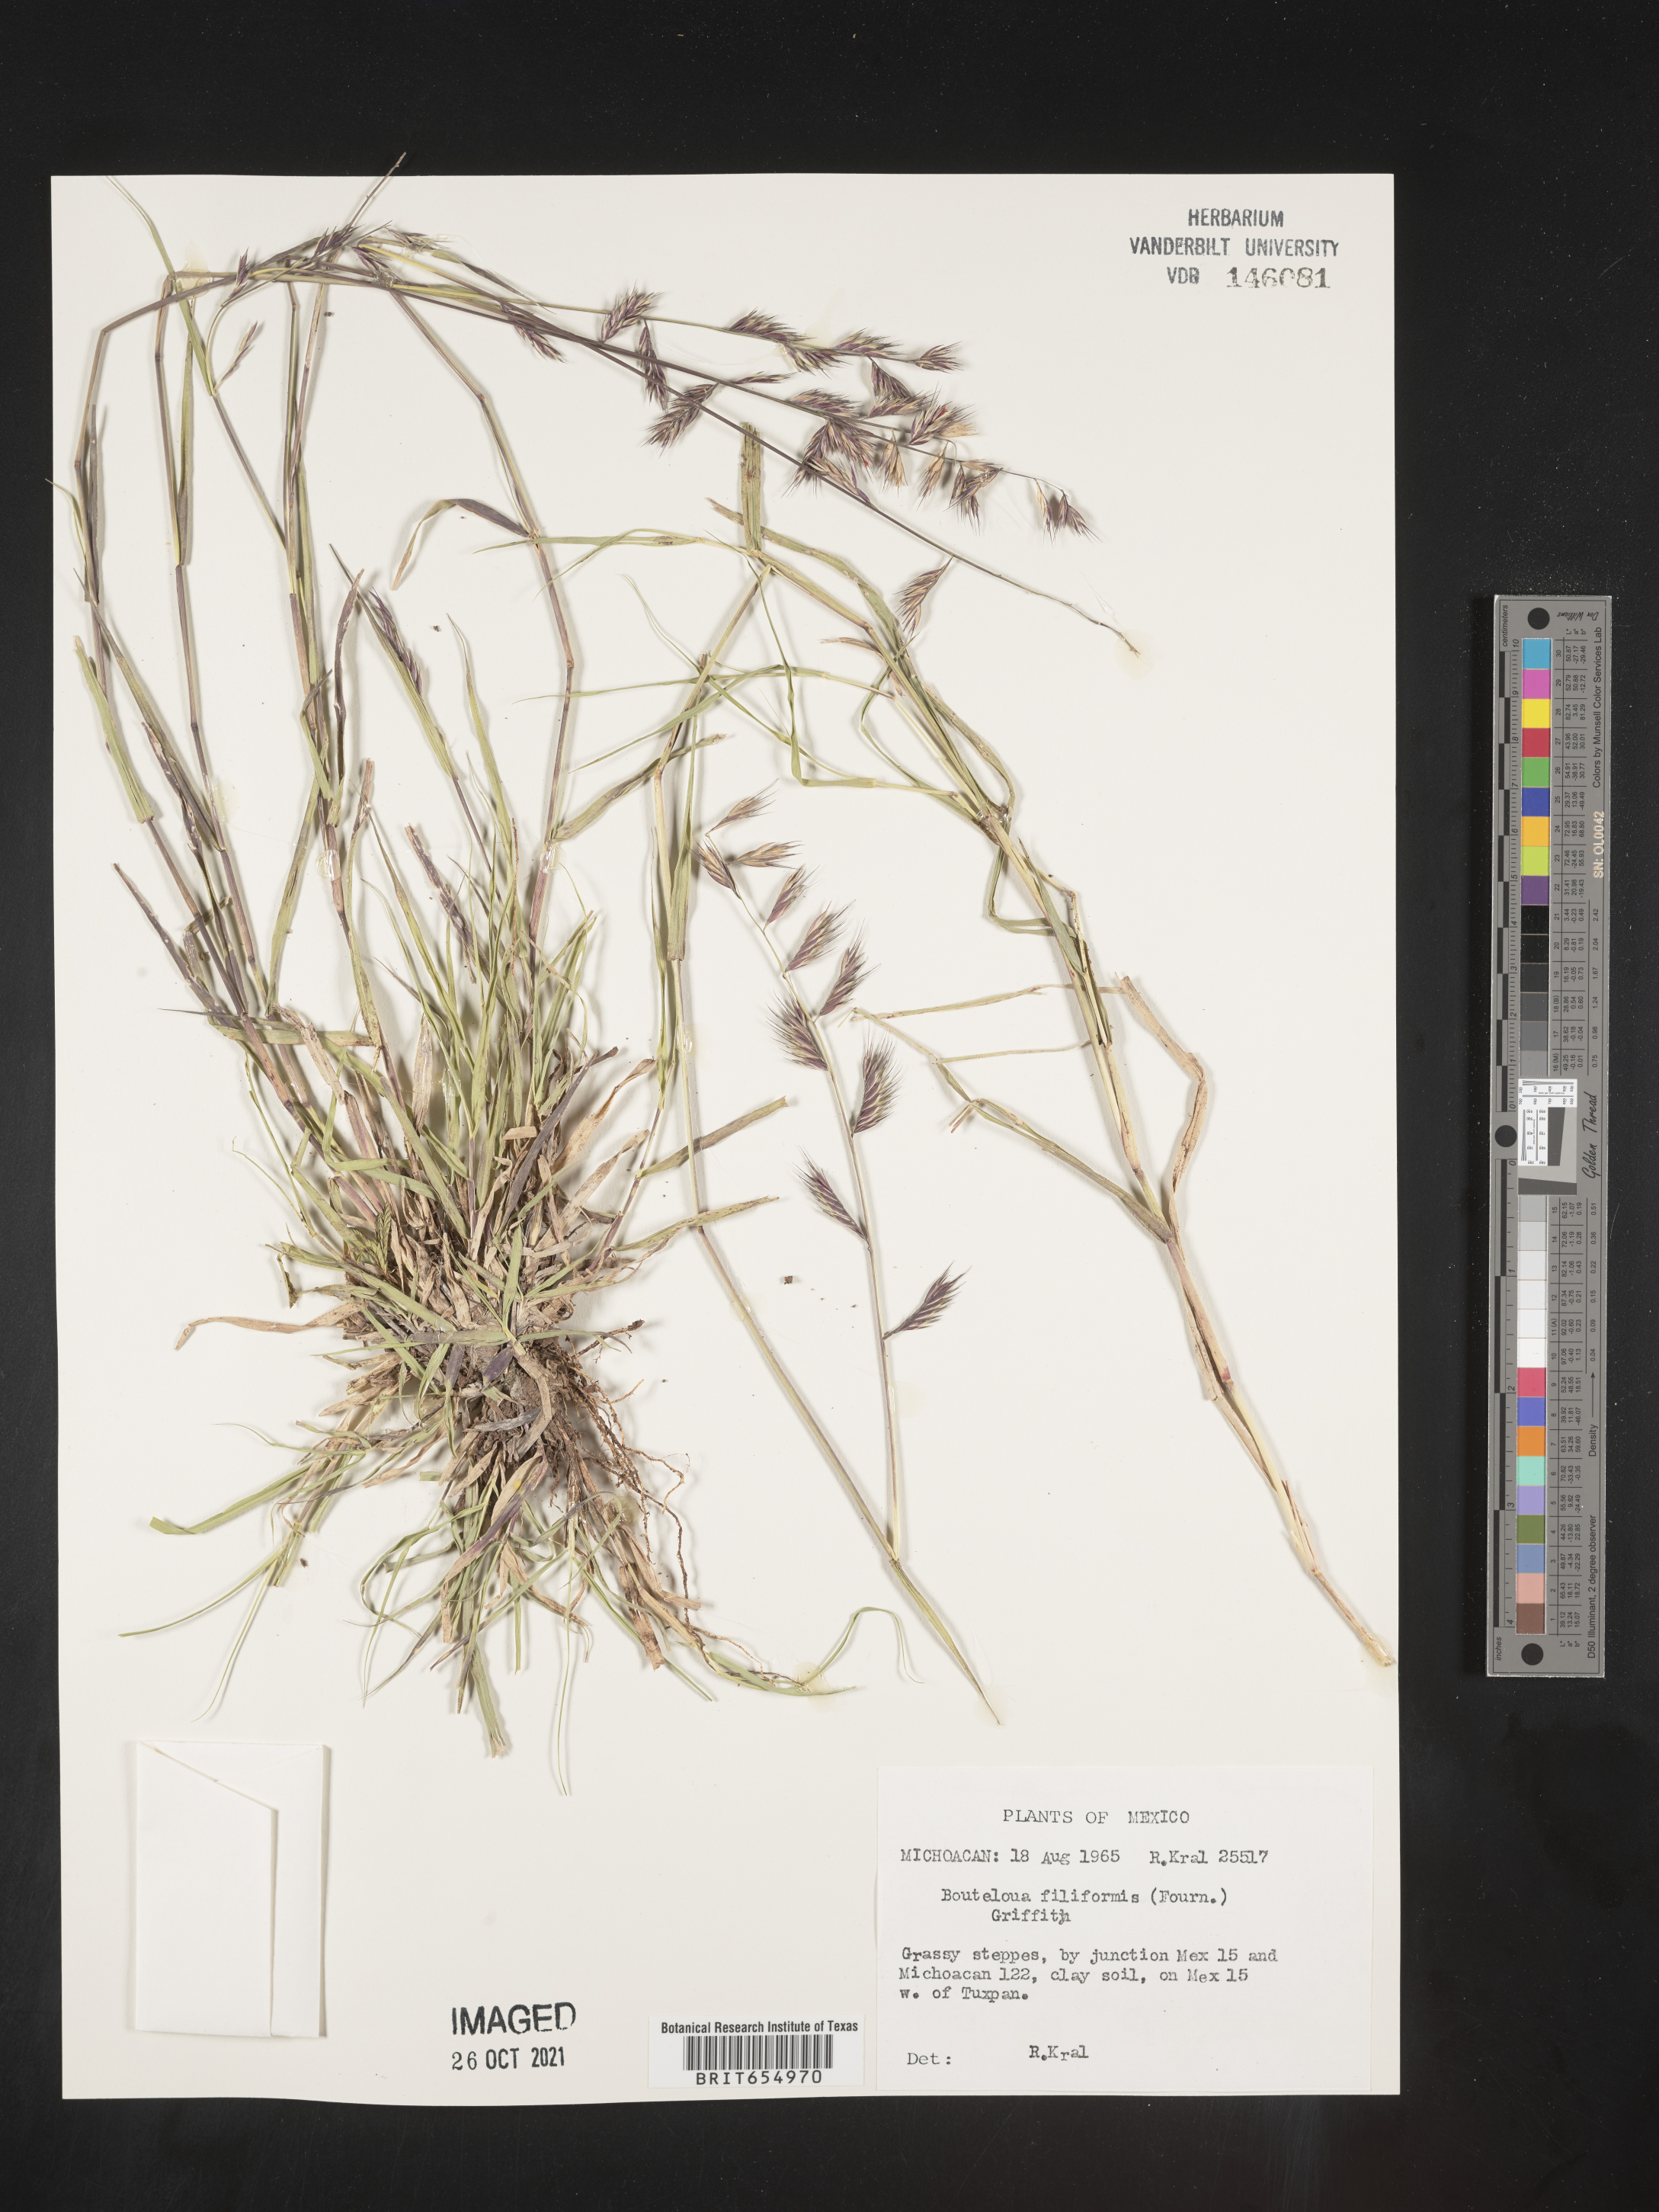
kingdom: Plantae
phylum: Tracheophyta
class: Liliopsida
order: Poales
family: Poaceae
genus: Bouteloua
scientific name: Bouteloua
